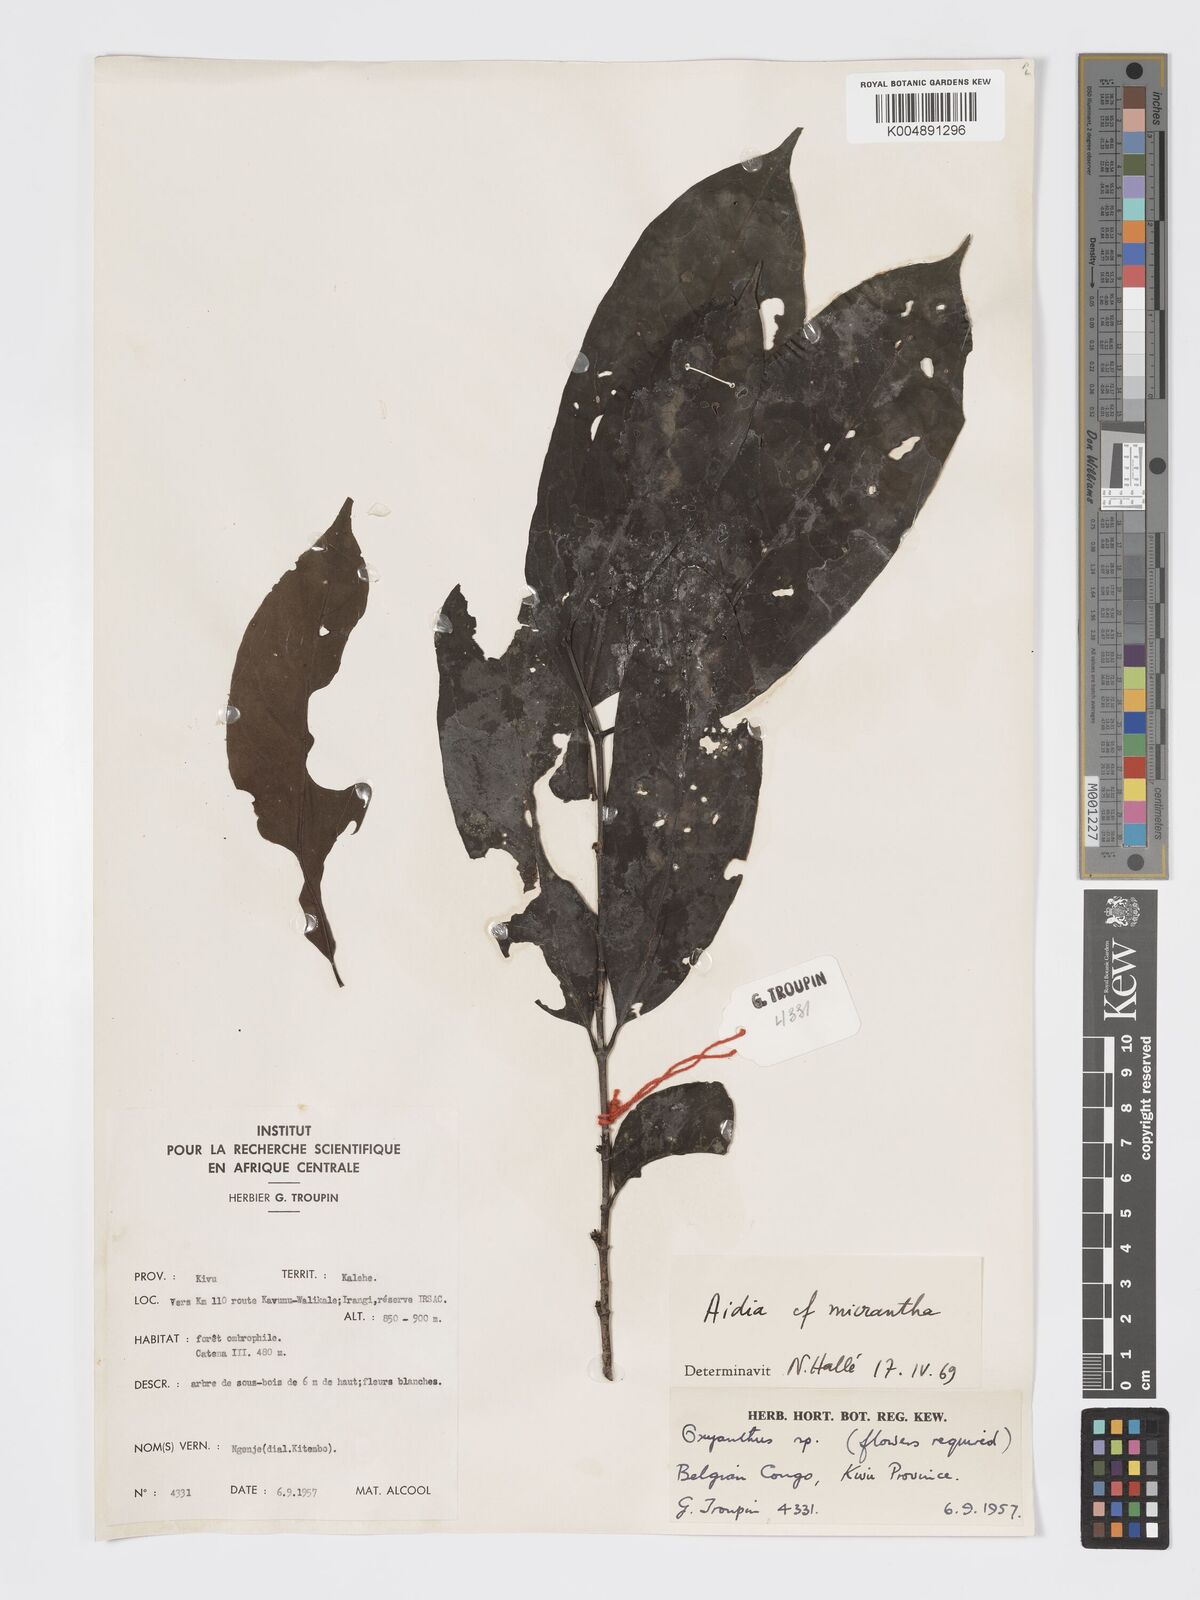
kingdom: Plantae
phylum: Tracheophyta
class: Magnoliopsida
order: Gentianales
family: Rubiaceae
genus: Aidia
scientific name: Aidia micrantha
